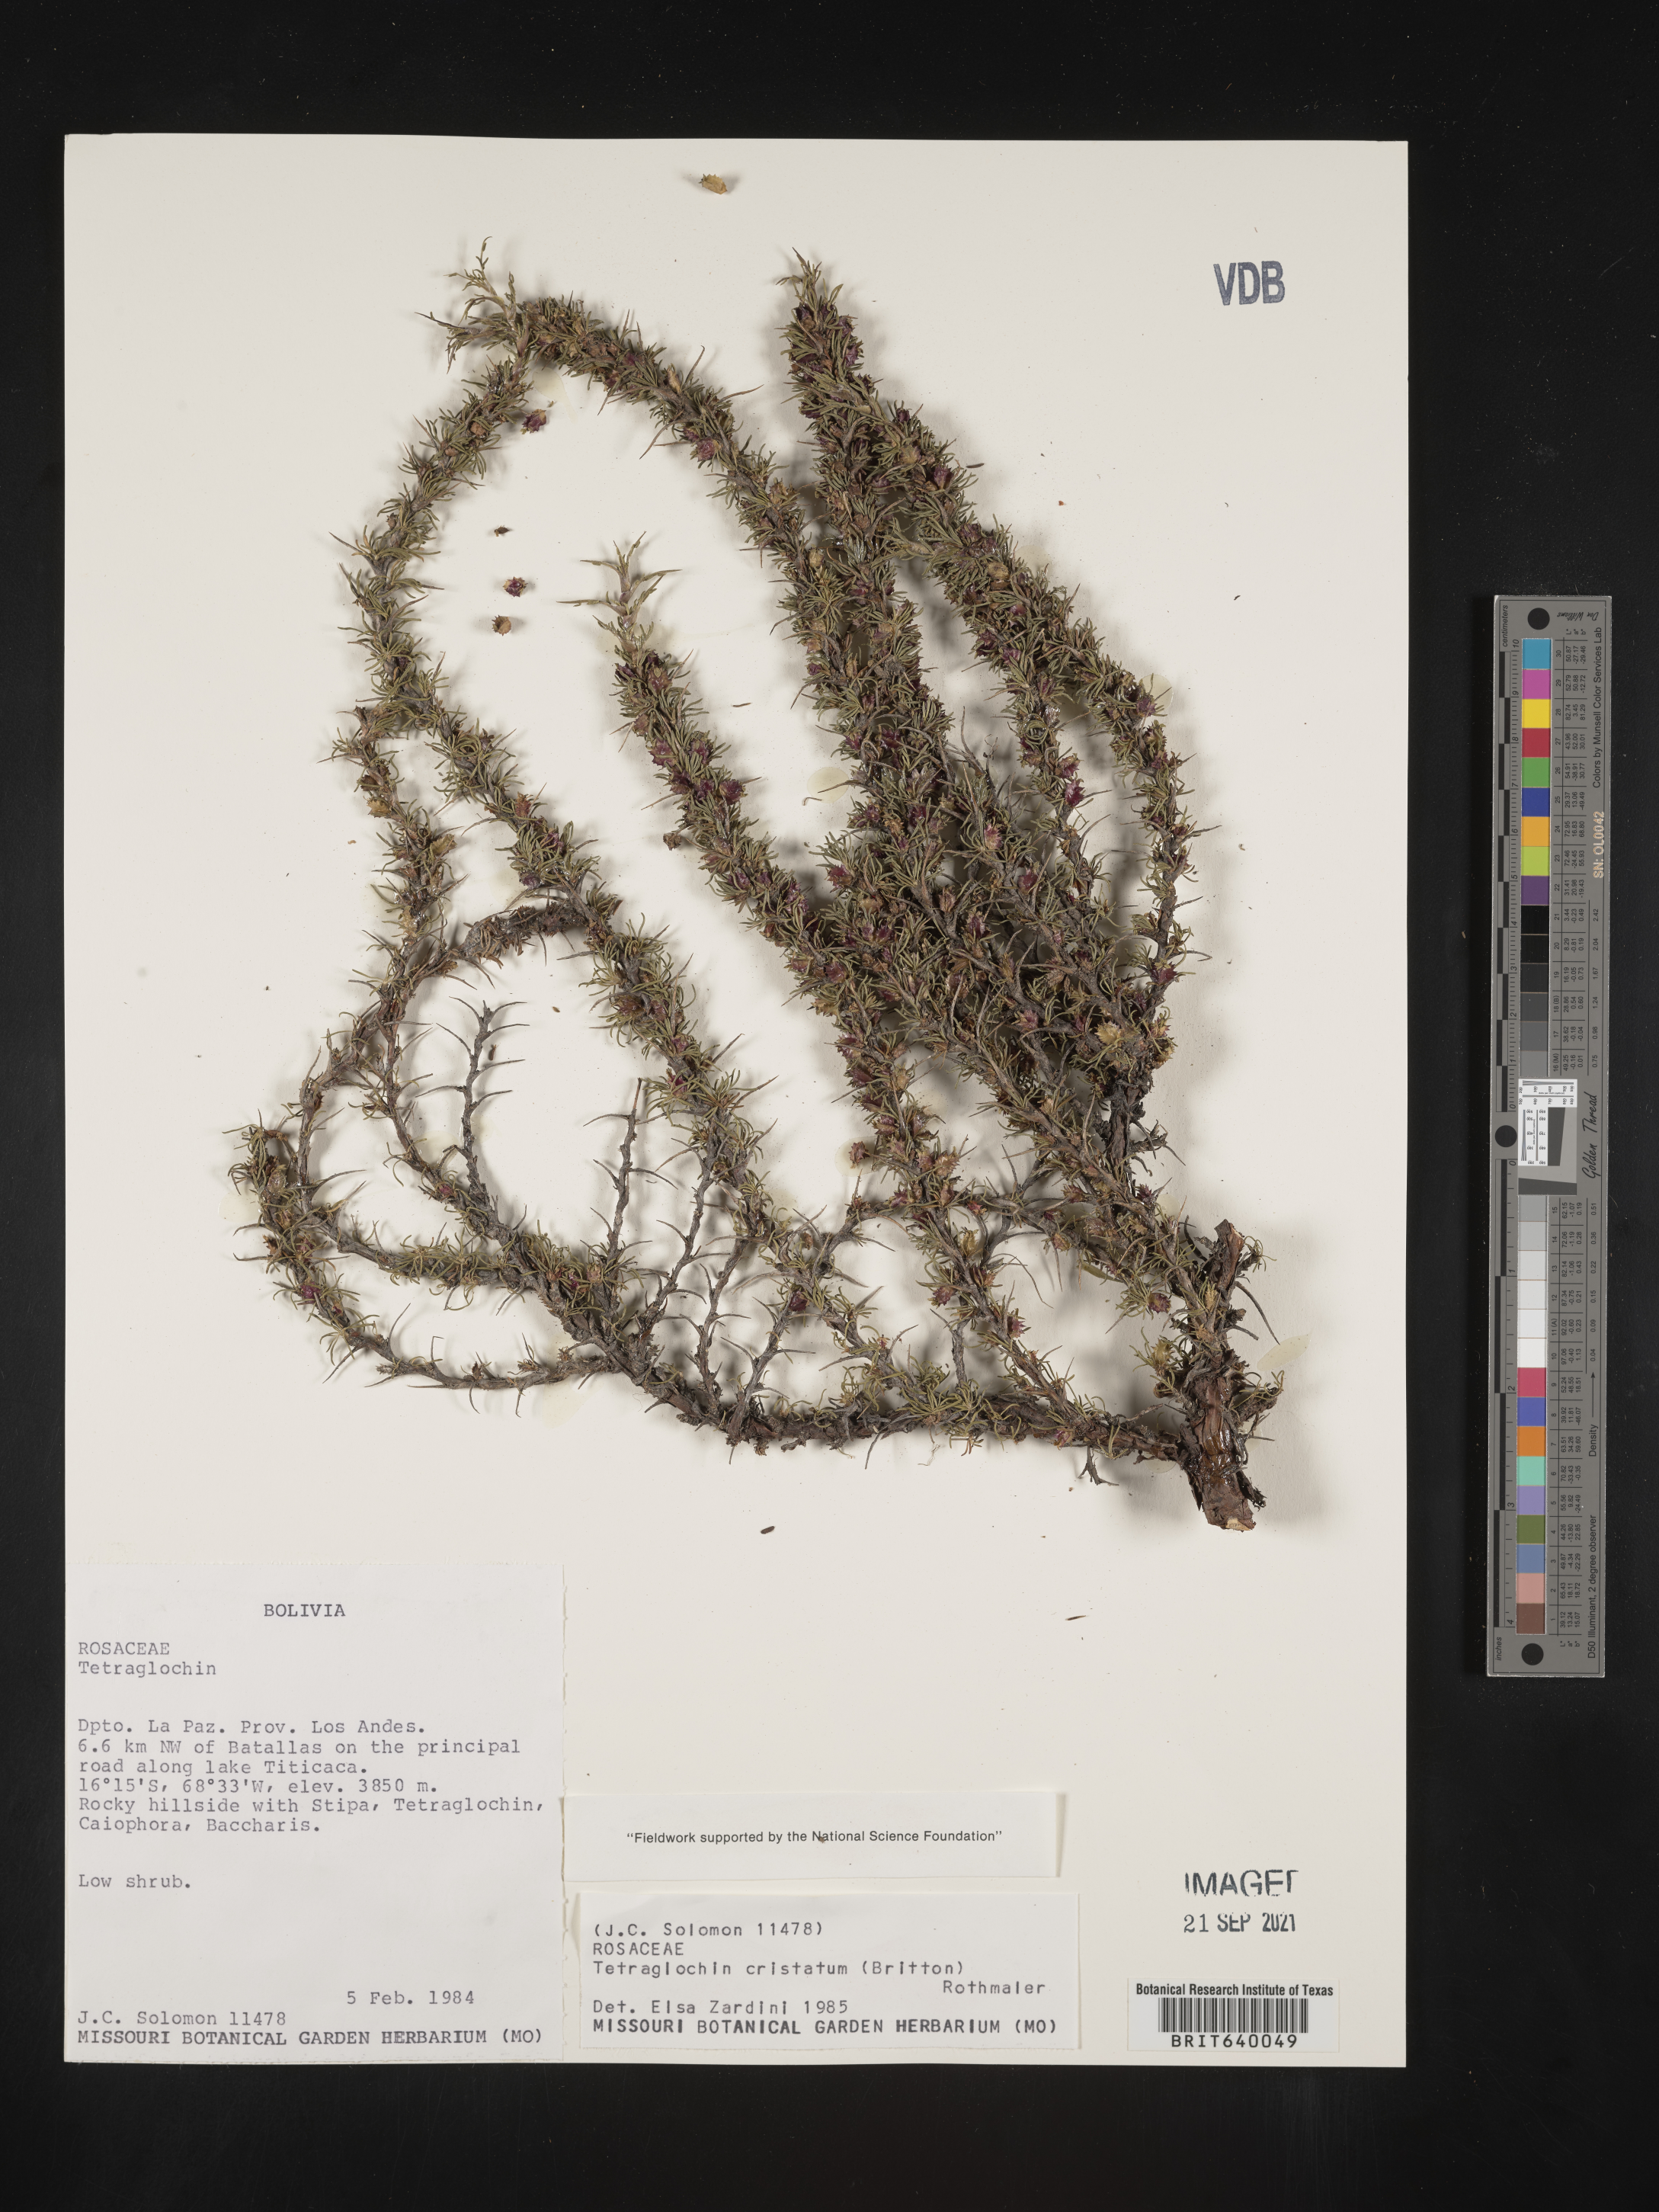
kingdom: Plantae
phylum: Tracheophyta
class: Magnoliopsida
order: Rosales
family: Rosaceae
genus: Margyricarpus
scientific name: Margyricarpus cristatus
